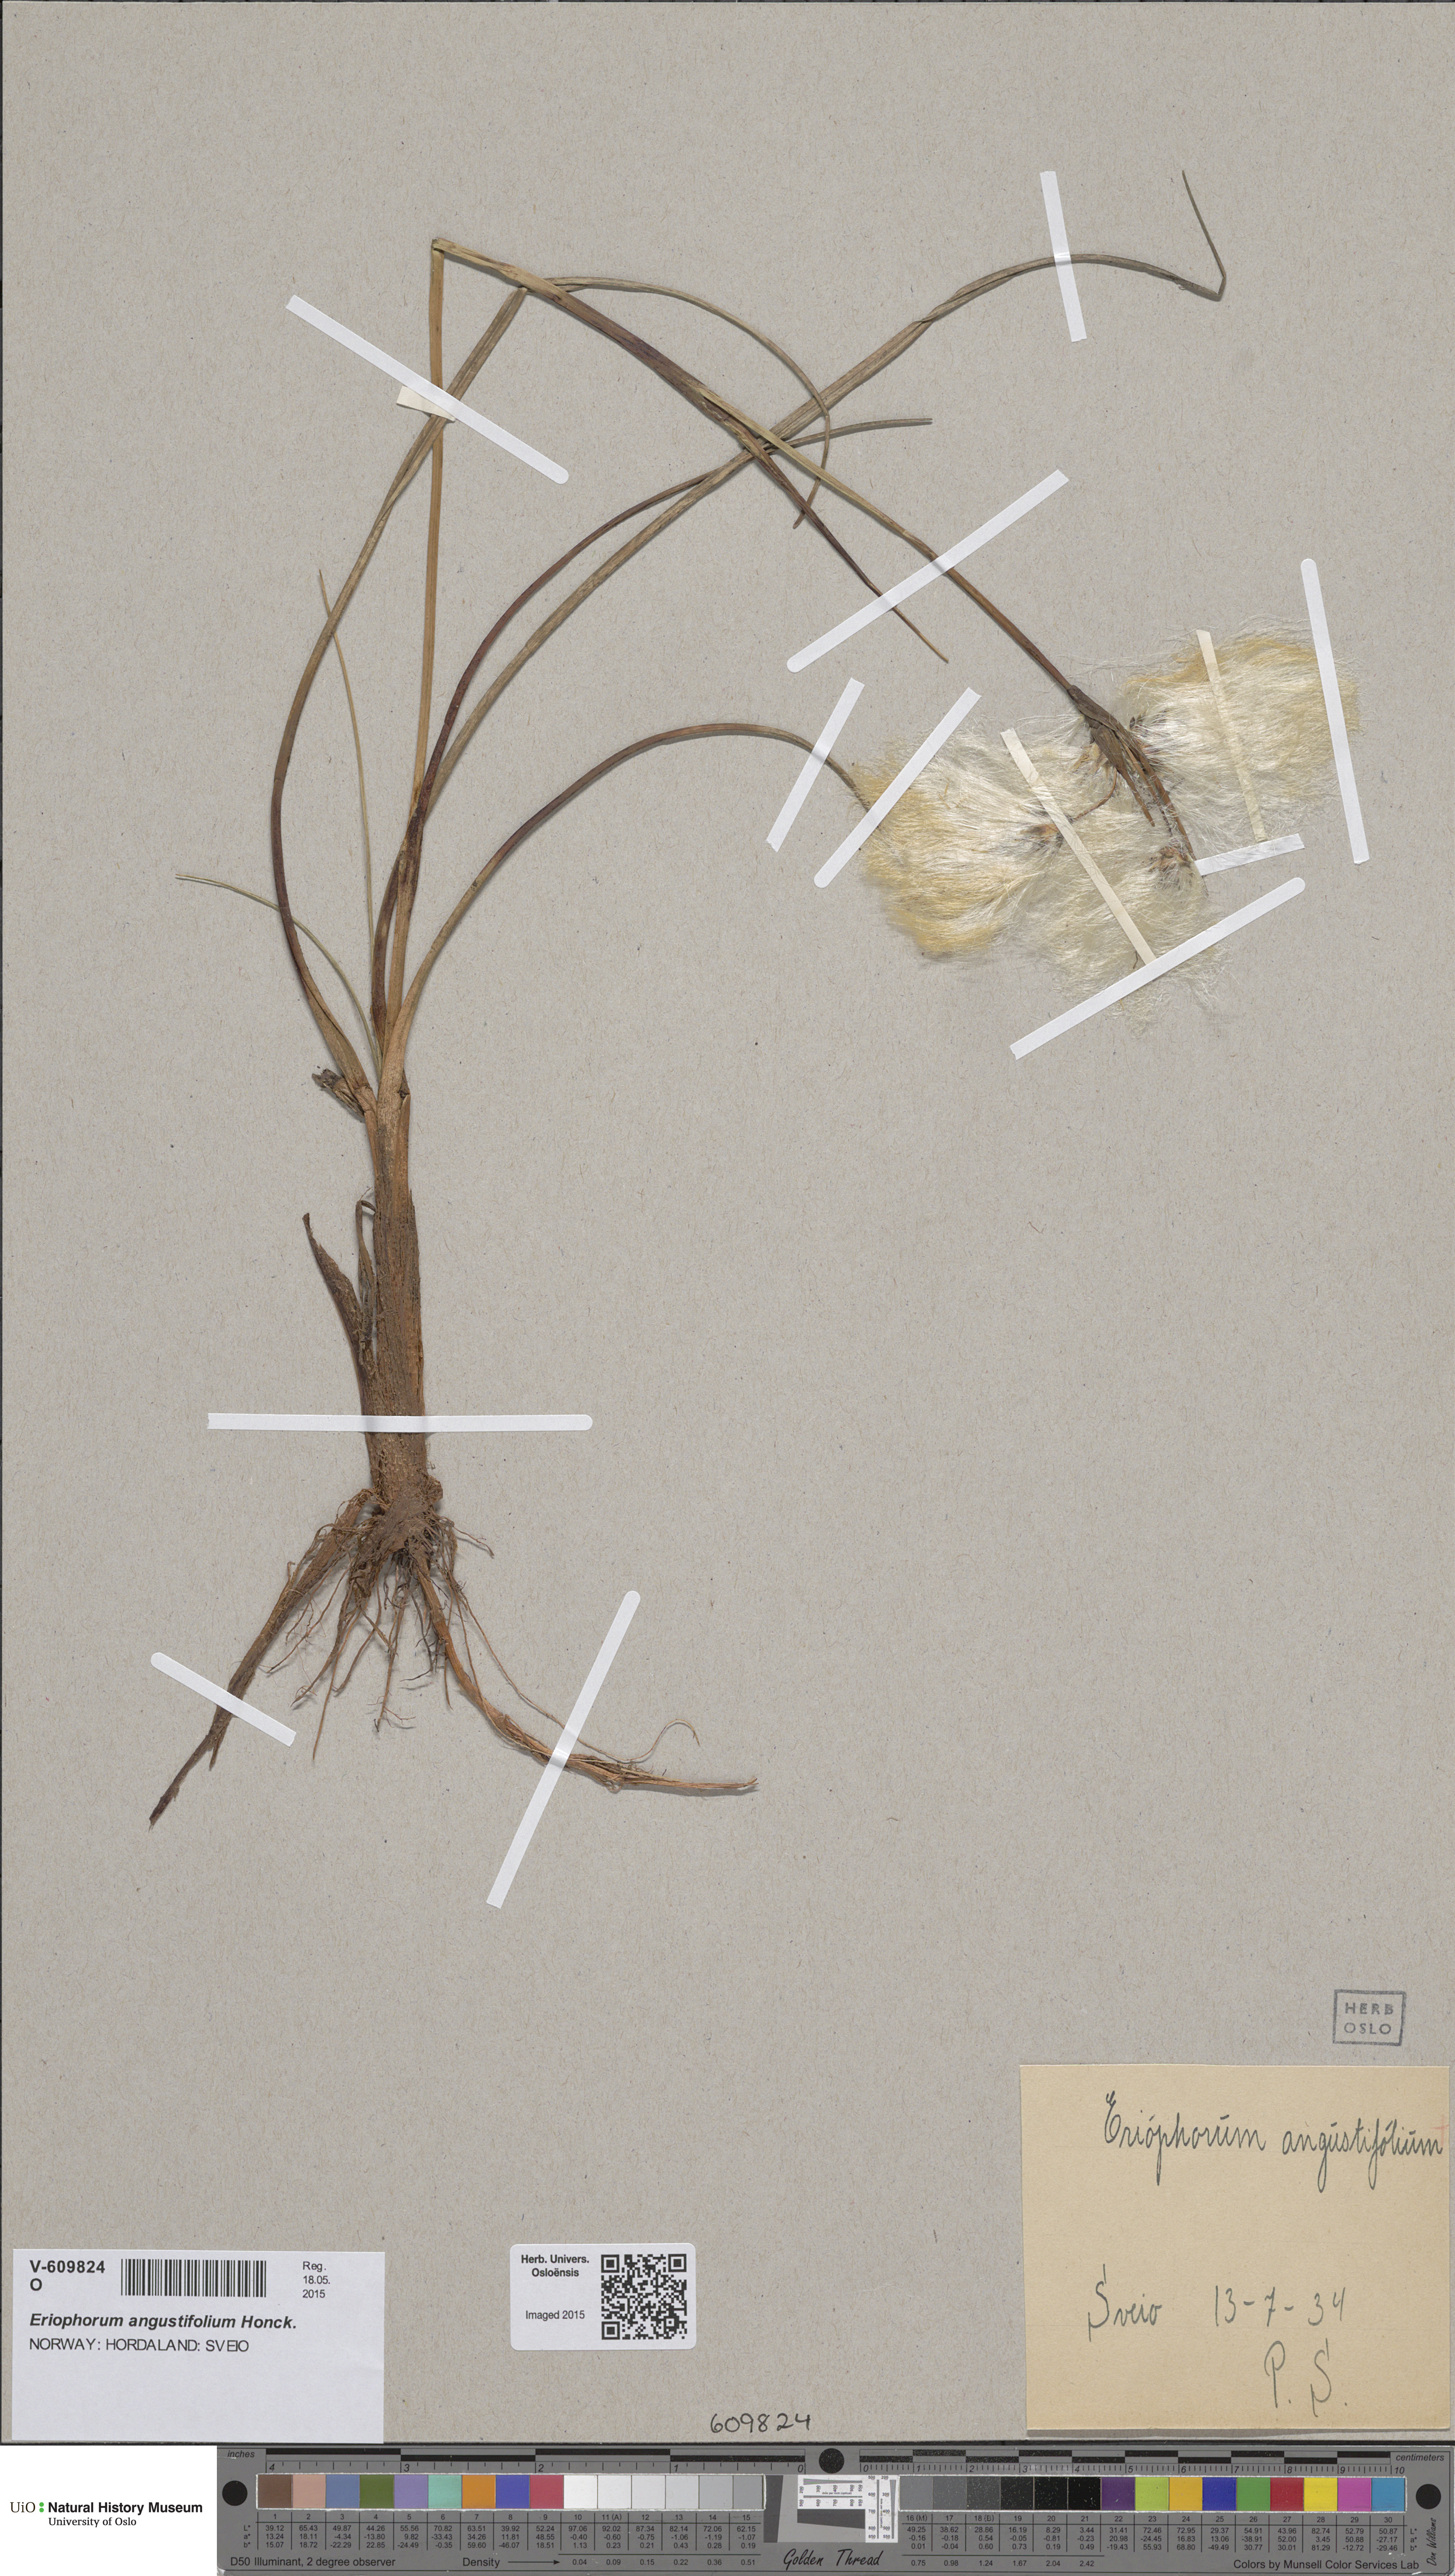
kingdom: Plantae
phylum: Tracheophyta
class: Liliopsida
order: Poales
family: Cyperaceae
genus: Eriophorum
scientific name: Eriophorum angustifolium
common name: Common cottongrass
